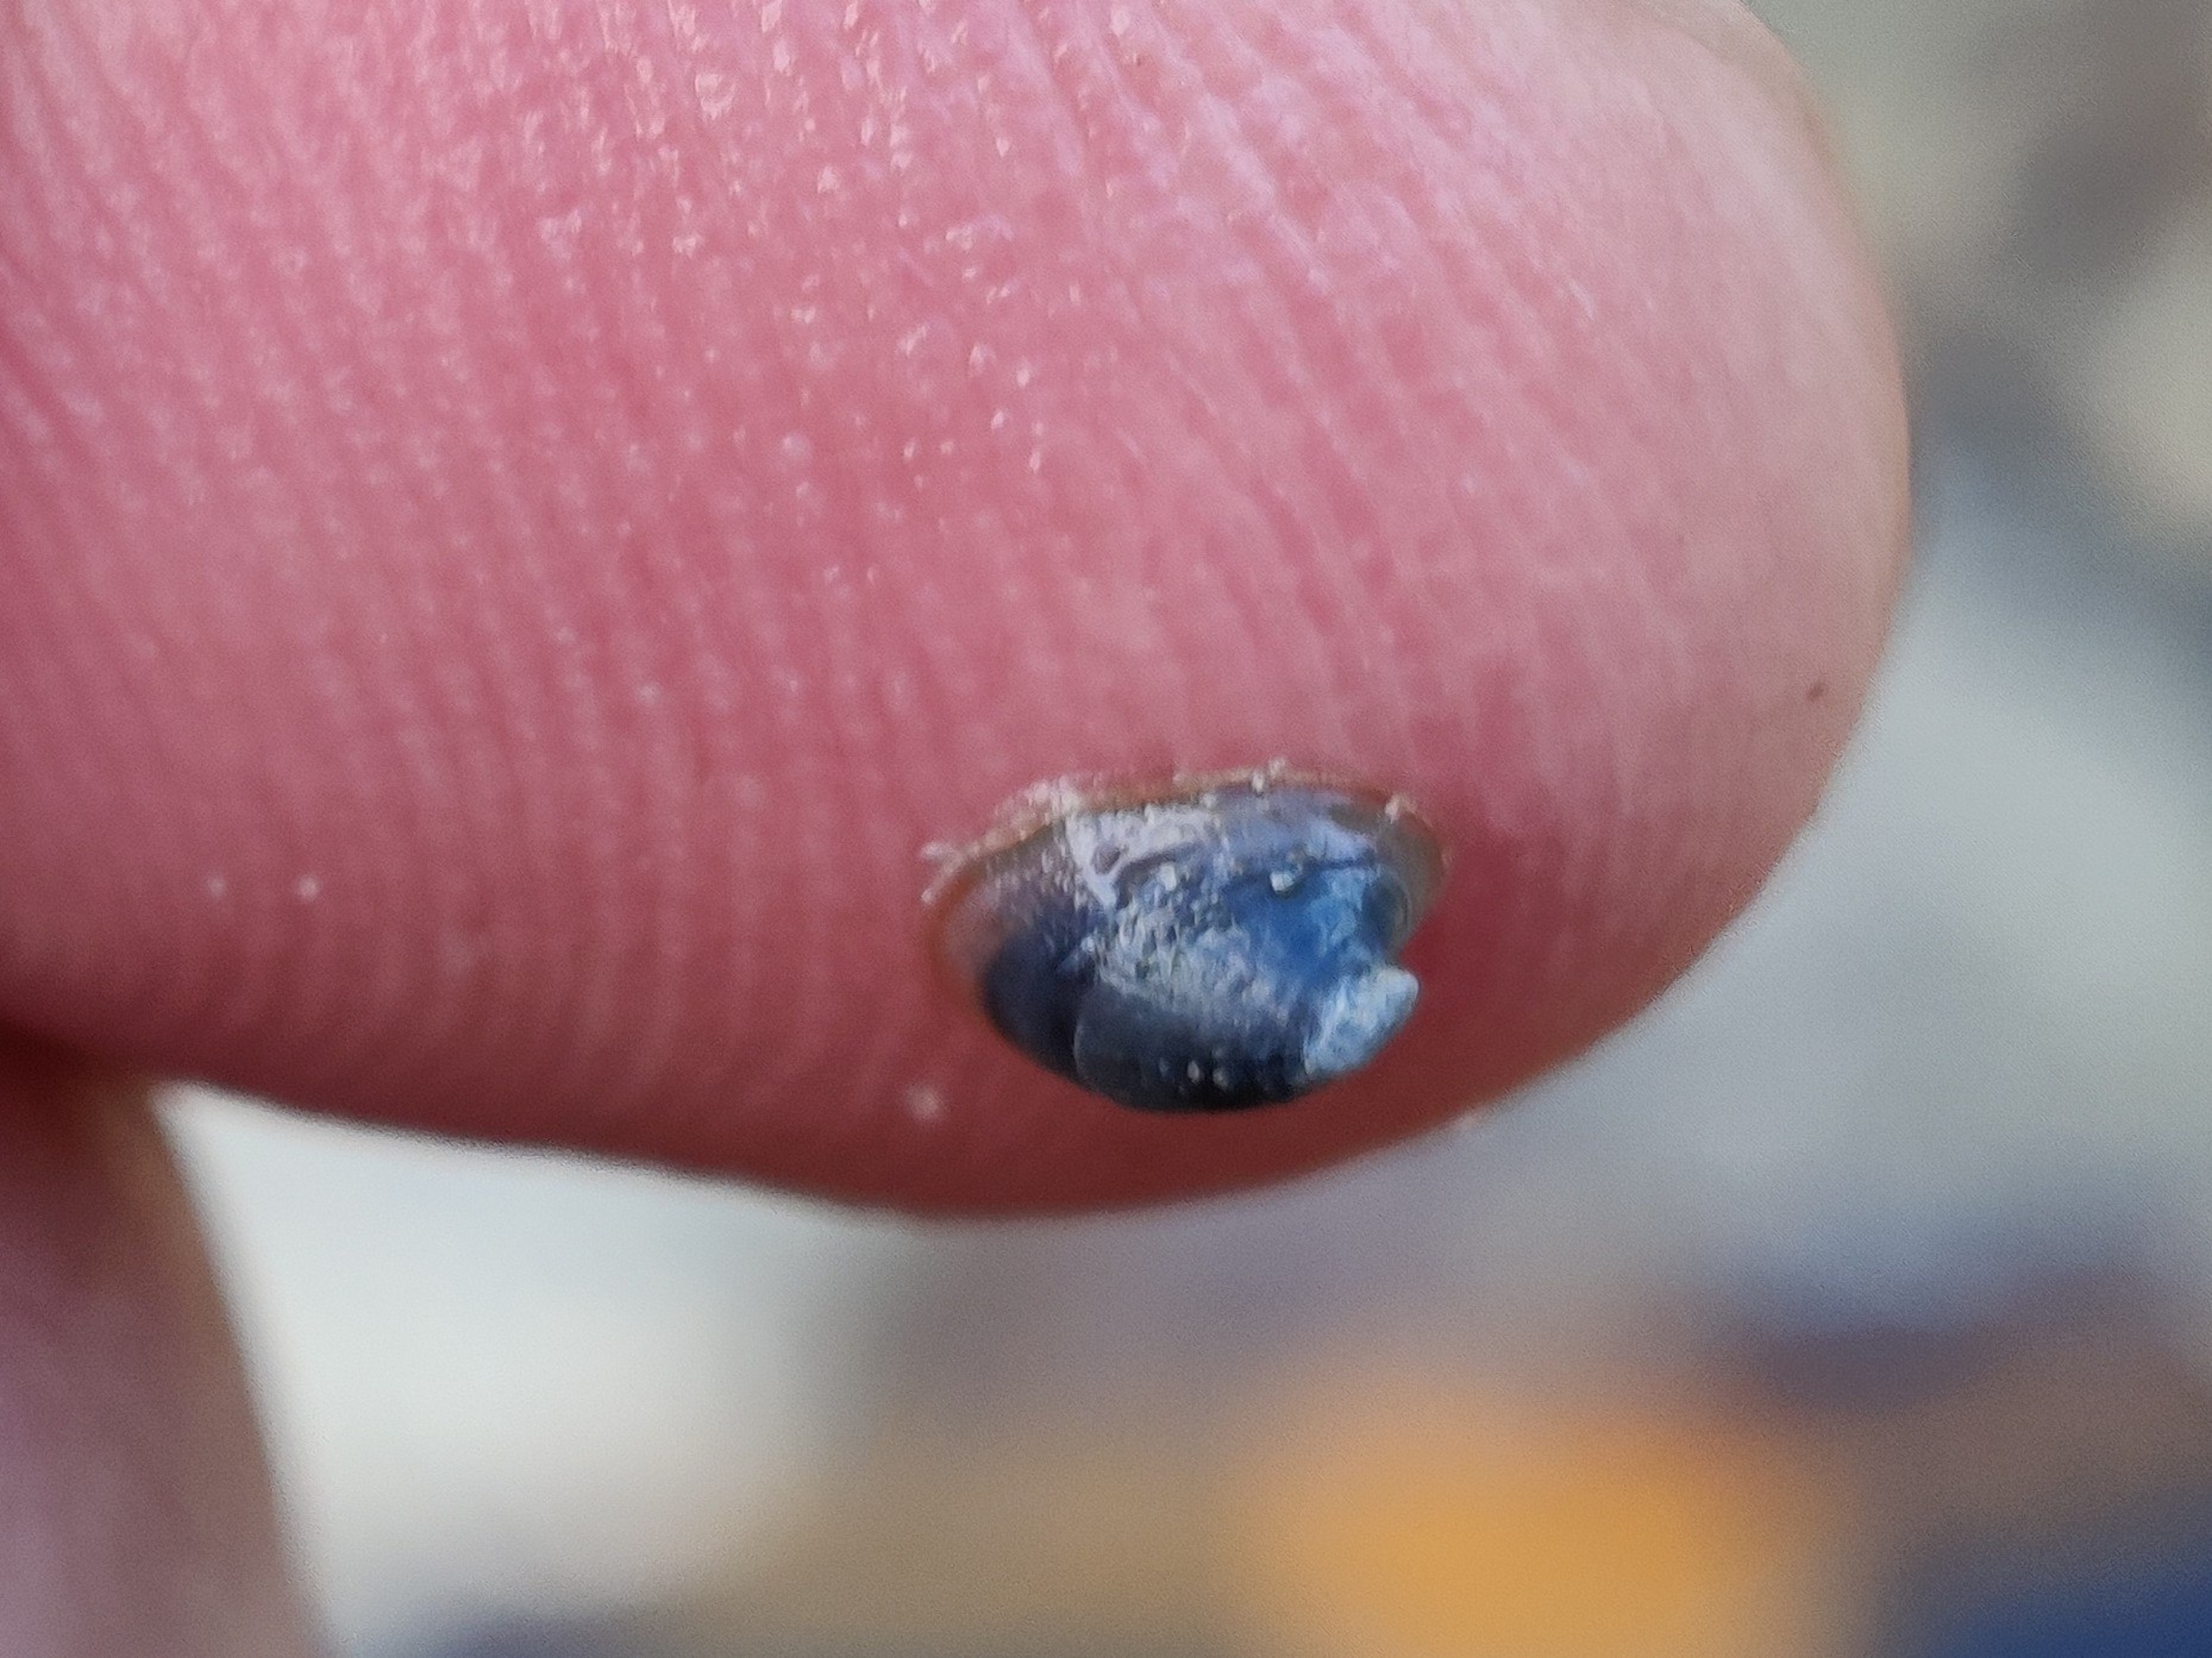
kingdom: Animalia
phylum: Mollusca
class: Gastropoda
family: Planorbidae
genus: Ancylus
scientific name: Ancylus fluviatilis
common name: Huesnegl
